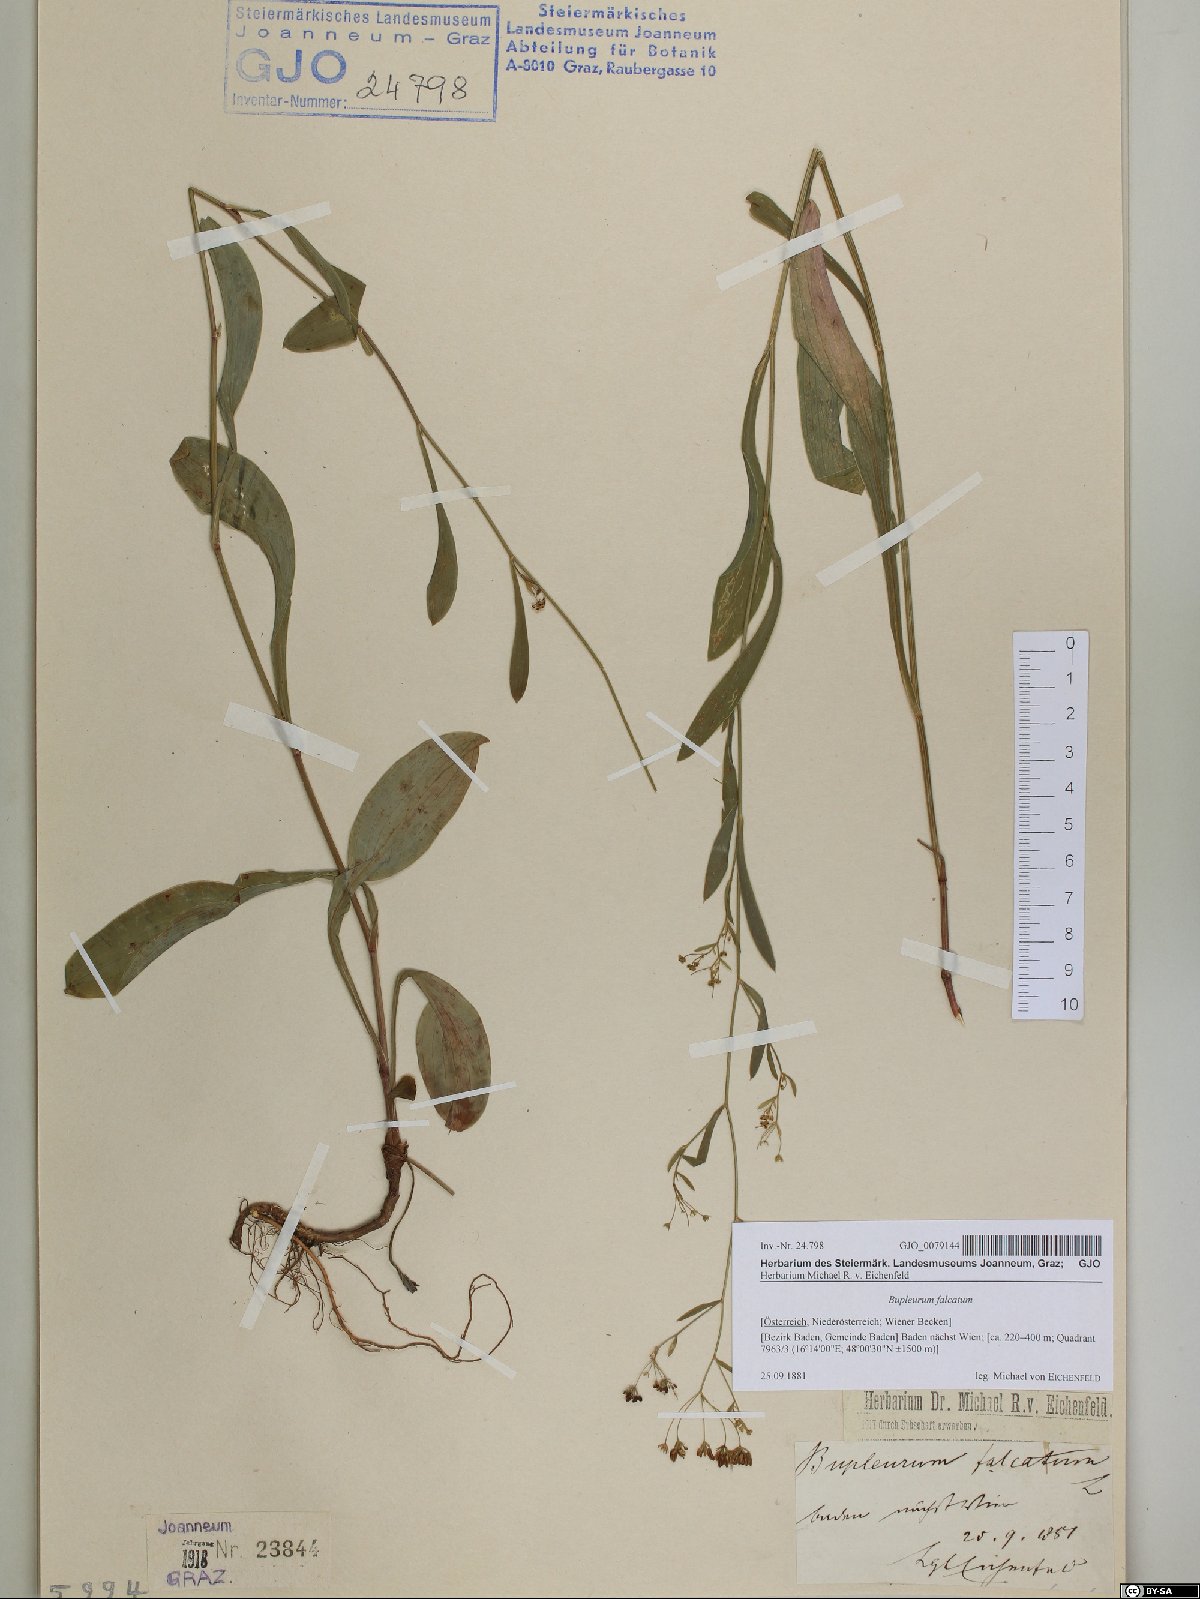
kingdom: Plantae
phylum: Tracheophyta
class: Magnoliopsida
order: Apiales
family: Apiaceae
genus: Bupleurum
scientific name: Bupleurum falcatum
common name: Sickle-leaved hare's-ear
